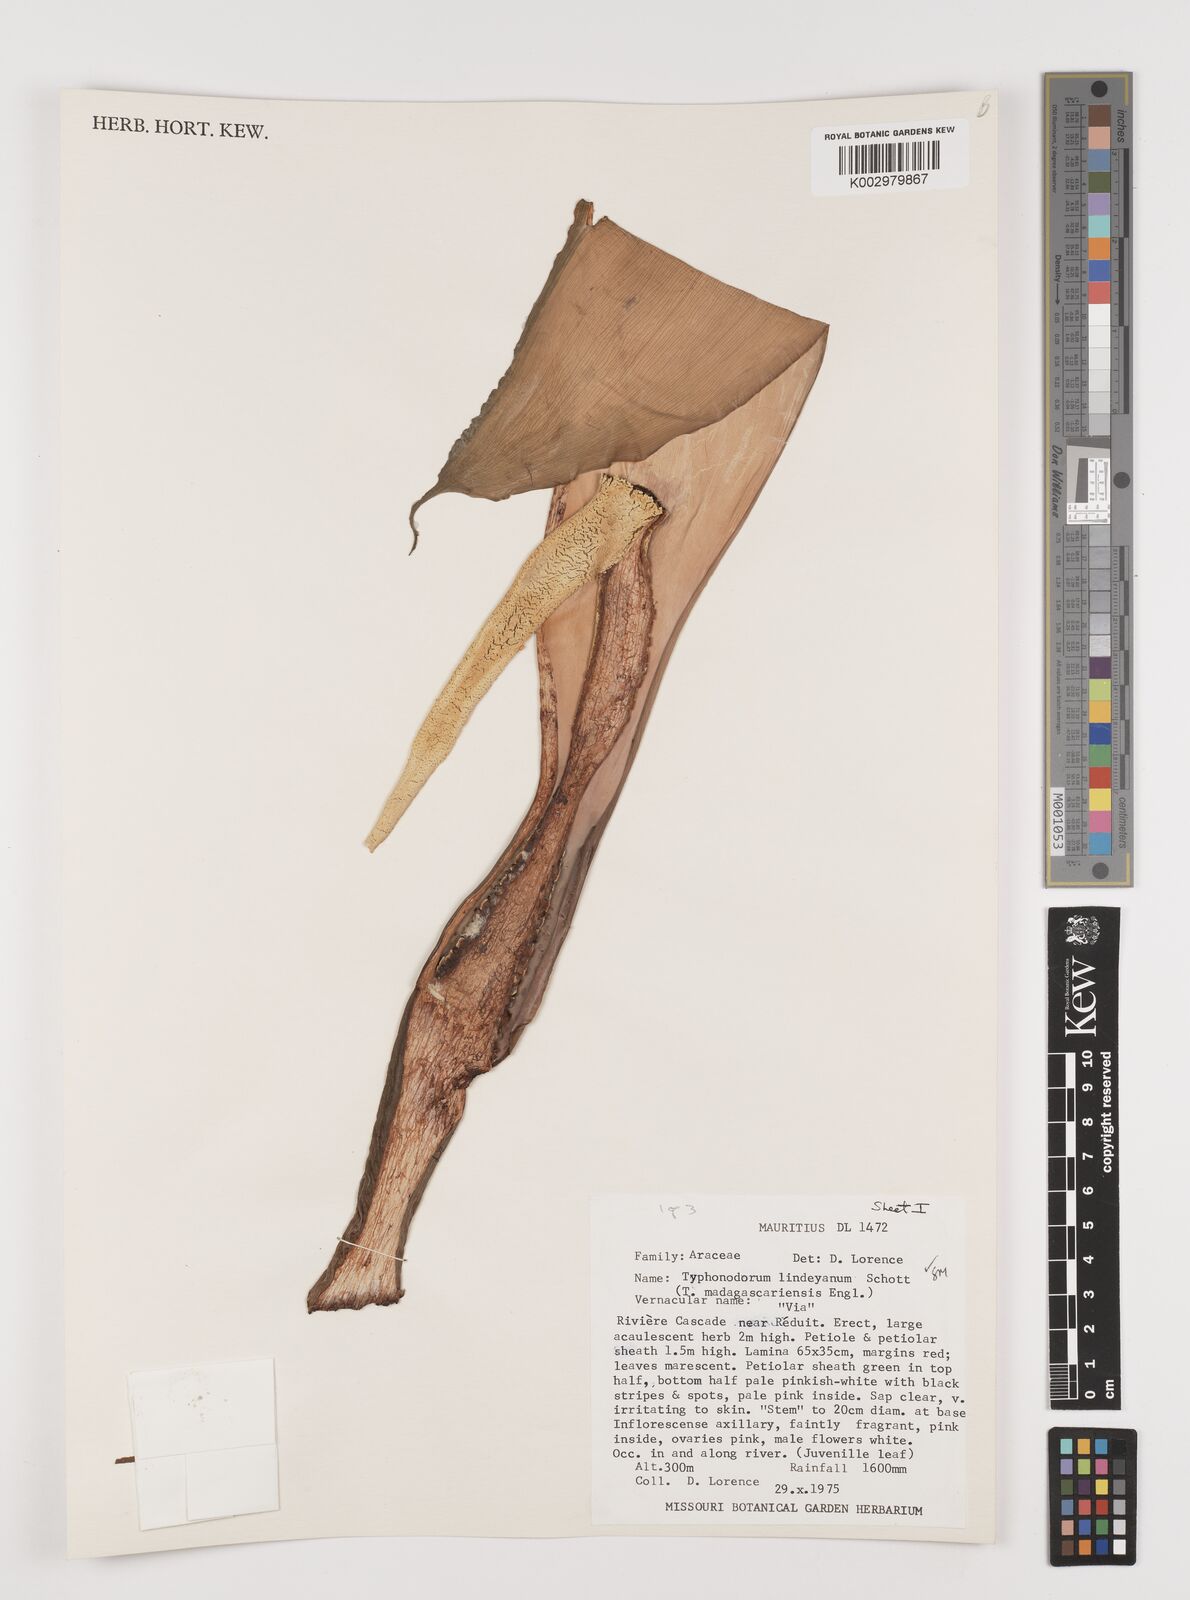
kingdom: Plantae
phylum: Tracheophyta
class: Liliopsida
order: Alismatales
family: Araceae
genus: Typhonodorum
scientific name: Typhonodorum lindleyanum
